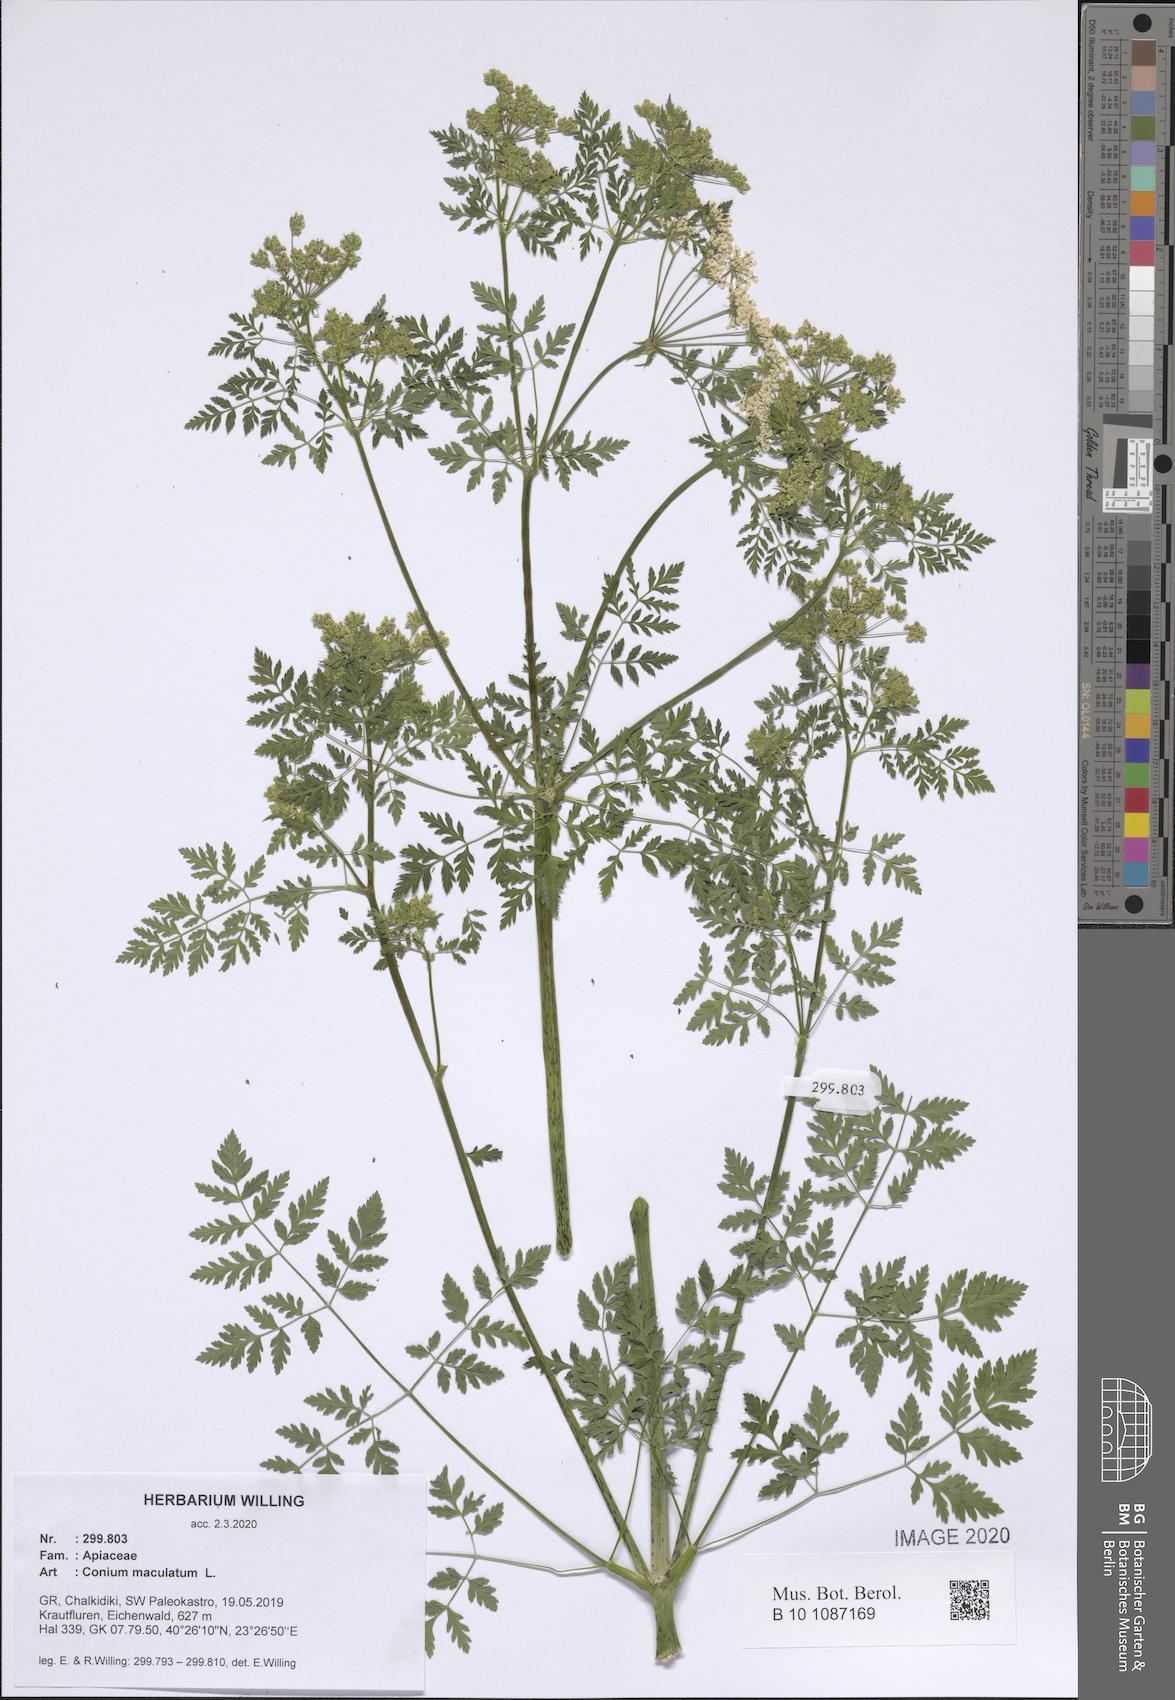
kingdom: Plantae
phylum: Tracheophyta
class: Magnoliopsida
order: Apiales
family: Apiaceae
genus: Conium
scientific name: Conium maculatum
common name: Hemlock
